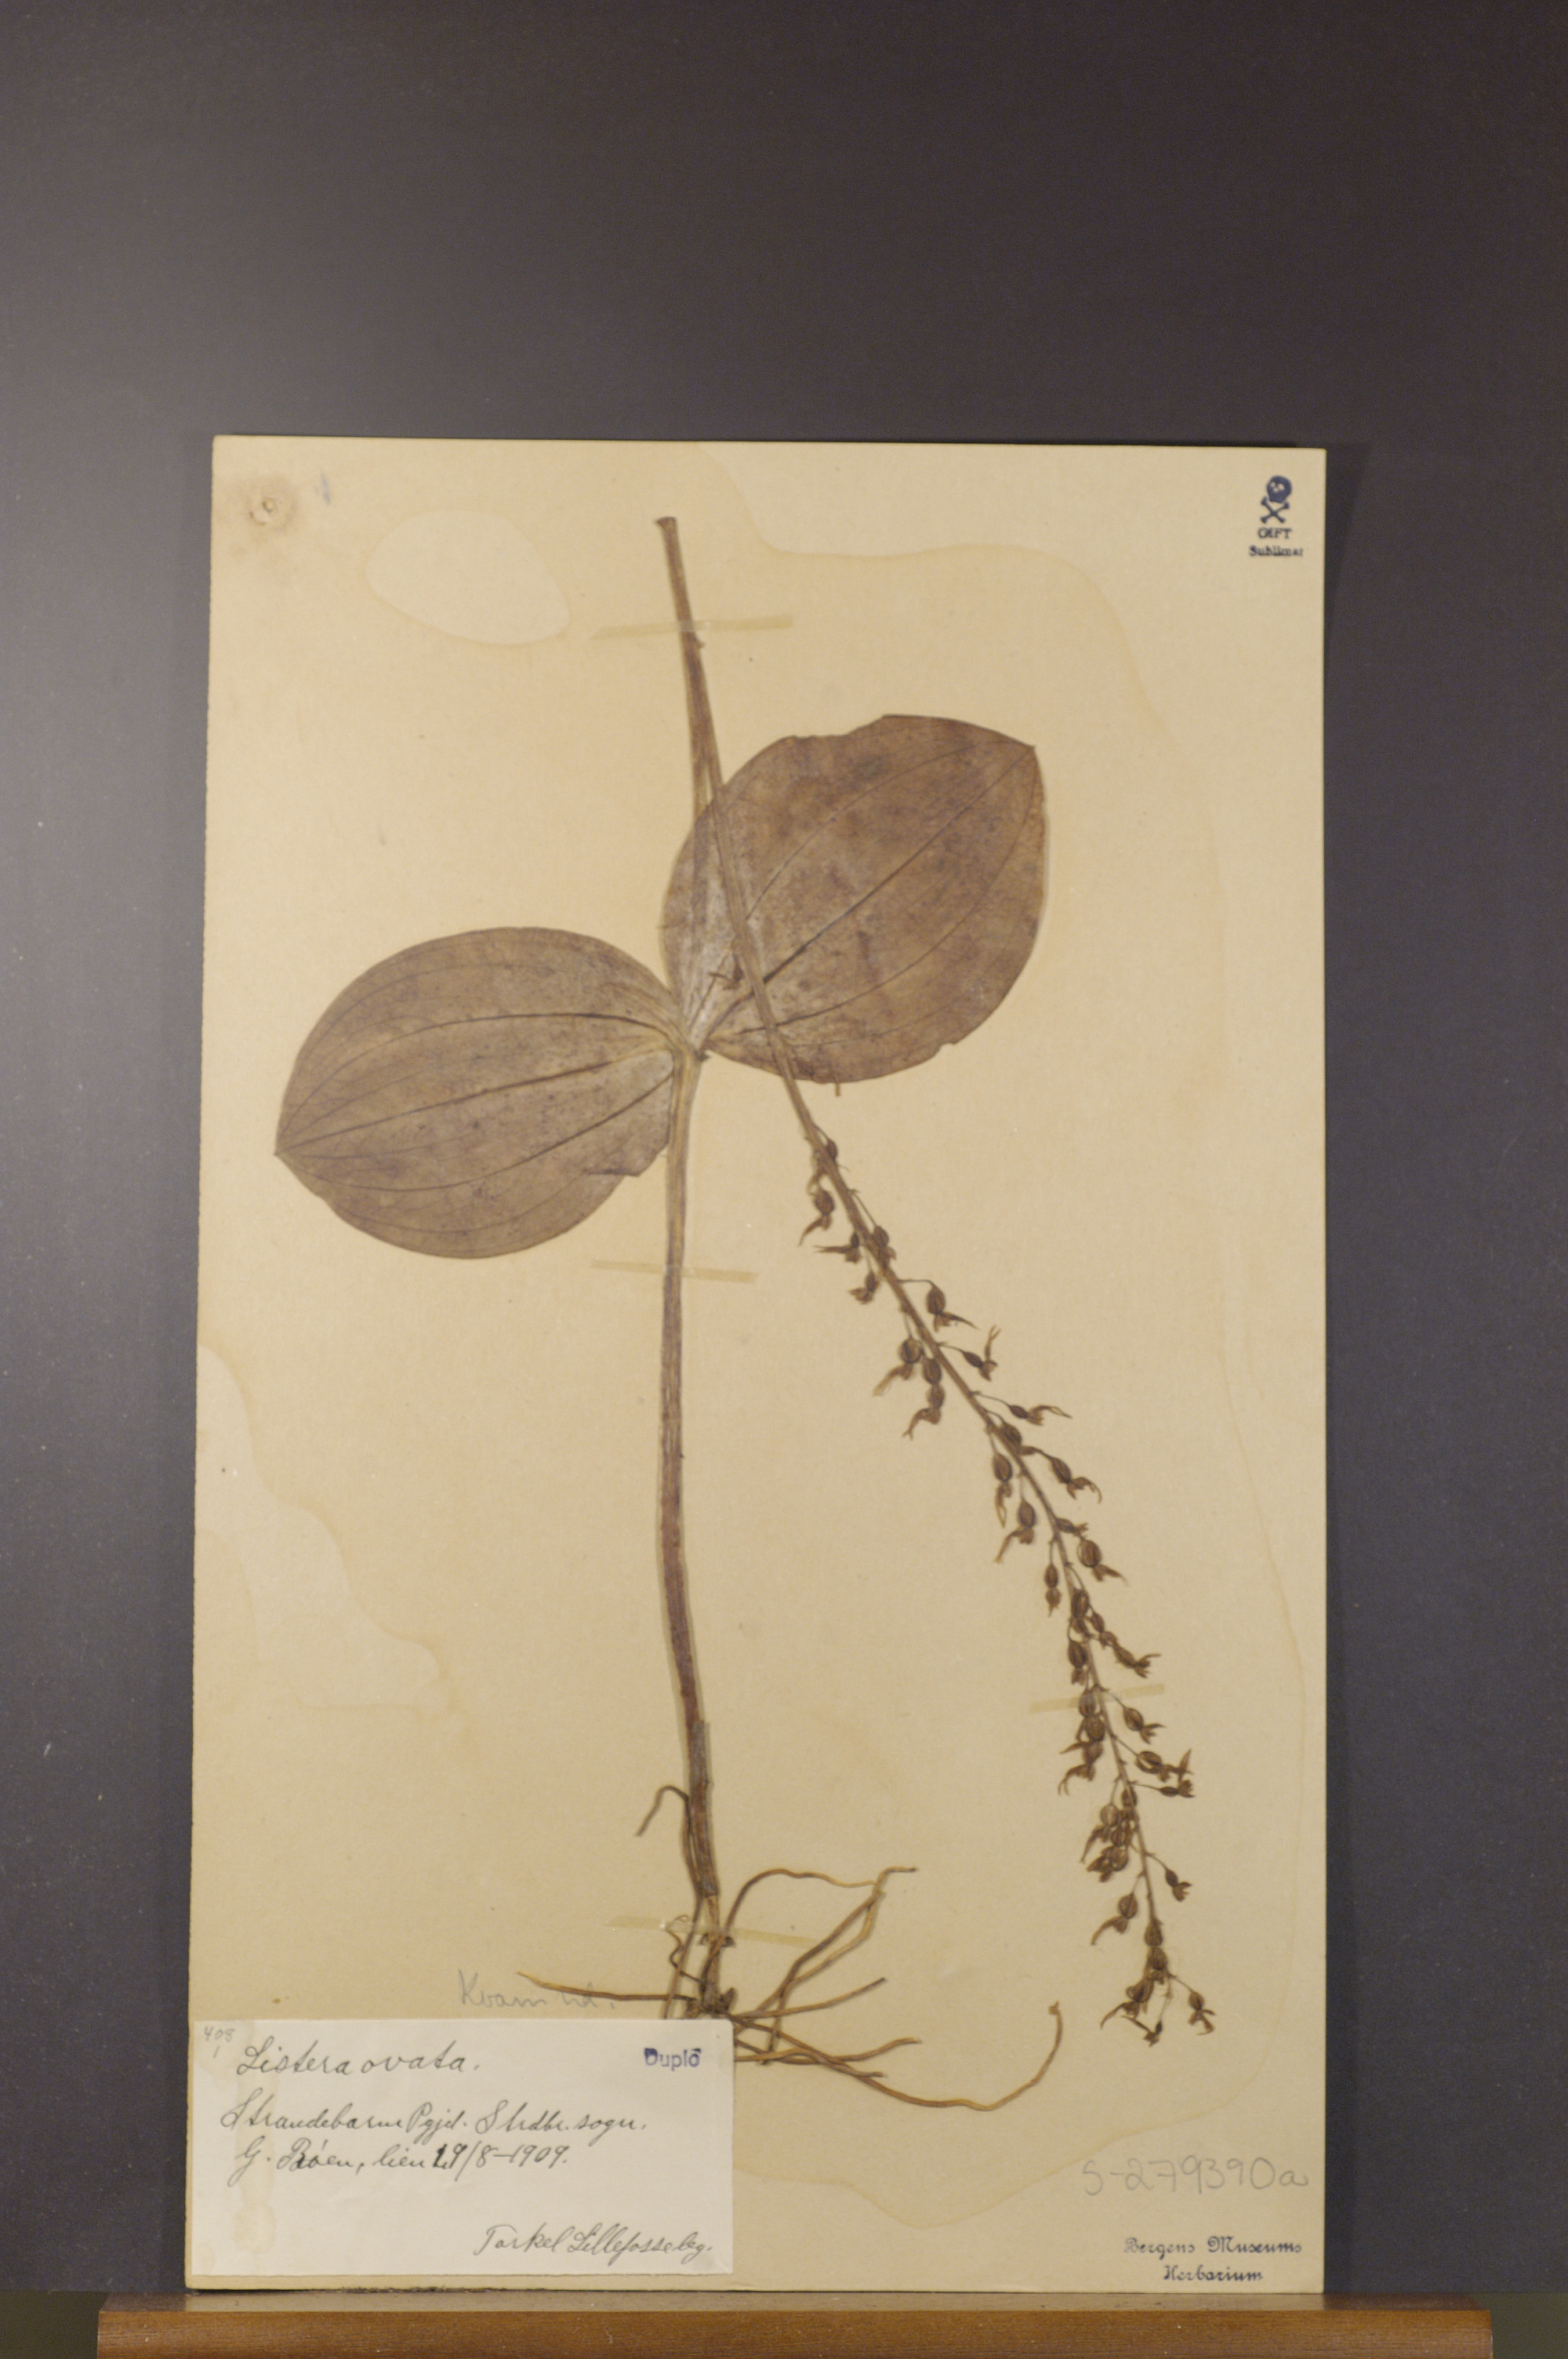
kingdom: Plantae
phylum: Tracheophyta
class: Liliopsida
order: Asparagales
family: Orchidaceae
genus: Neottia
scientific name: Neottia ovata
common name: Common twayblade
